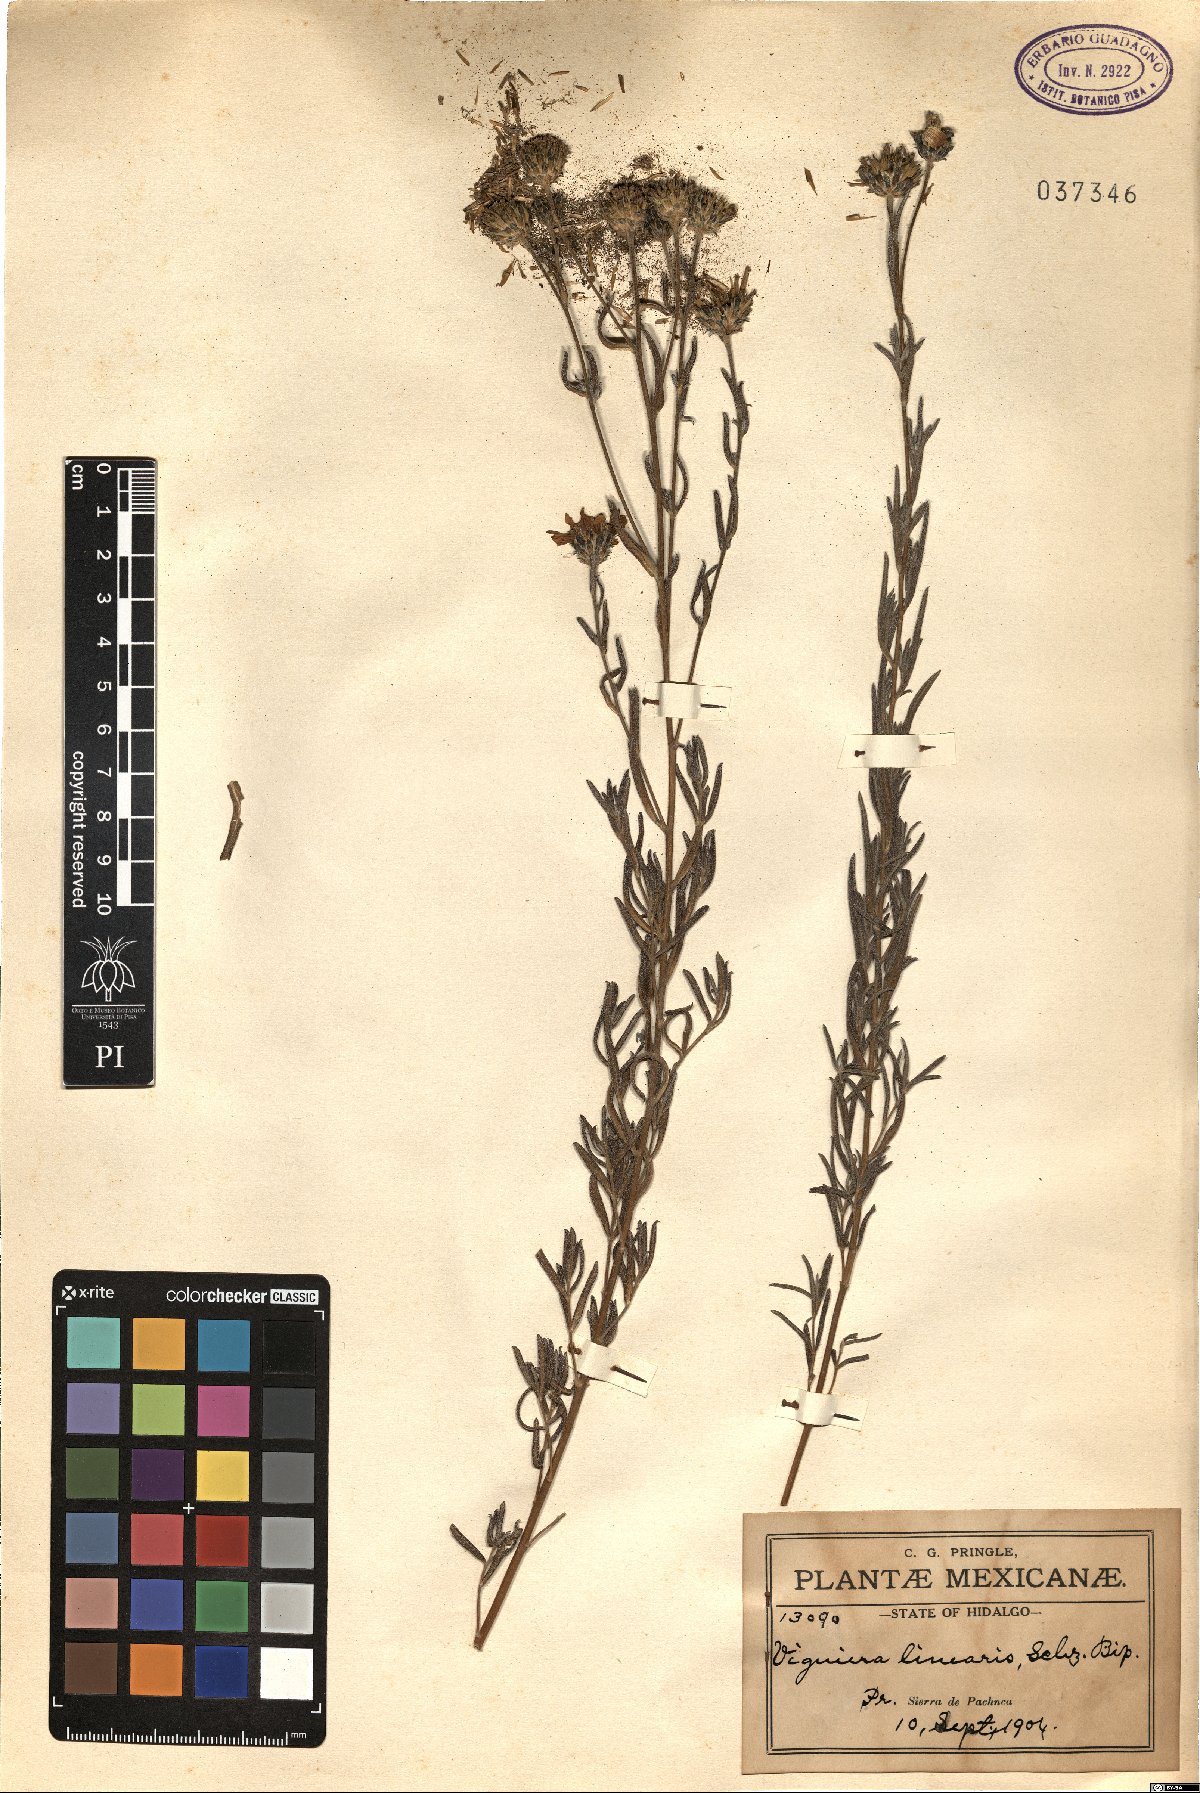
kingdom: Plantae
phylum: Tracheophyta
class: Magnoliopsida
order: Asterales
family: Asteraceae
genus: Aldama
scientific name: Aldama linearis
